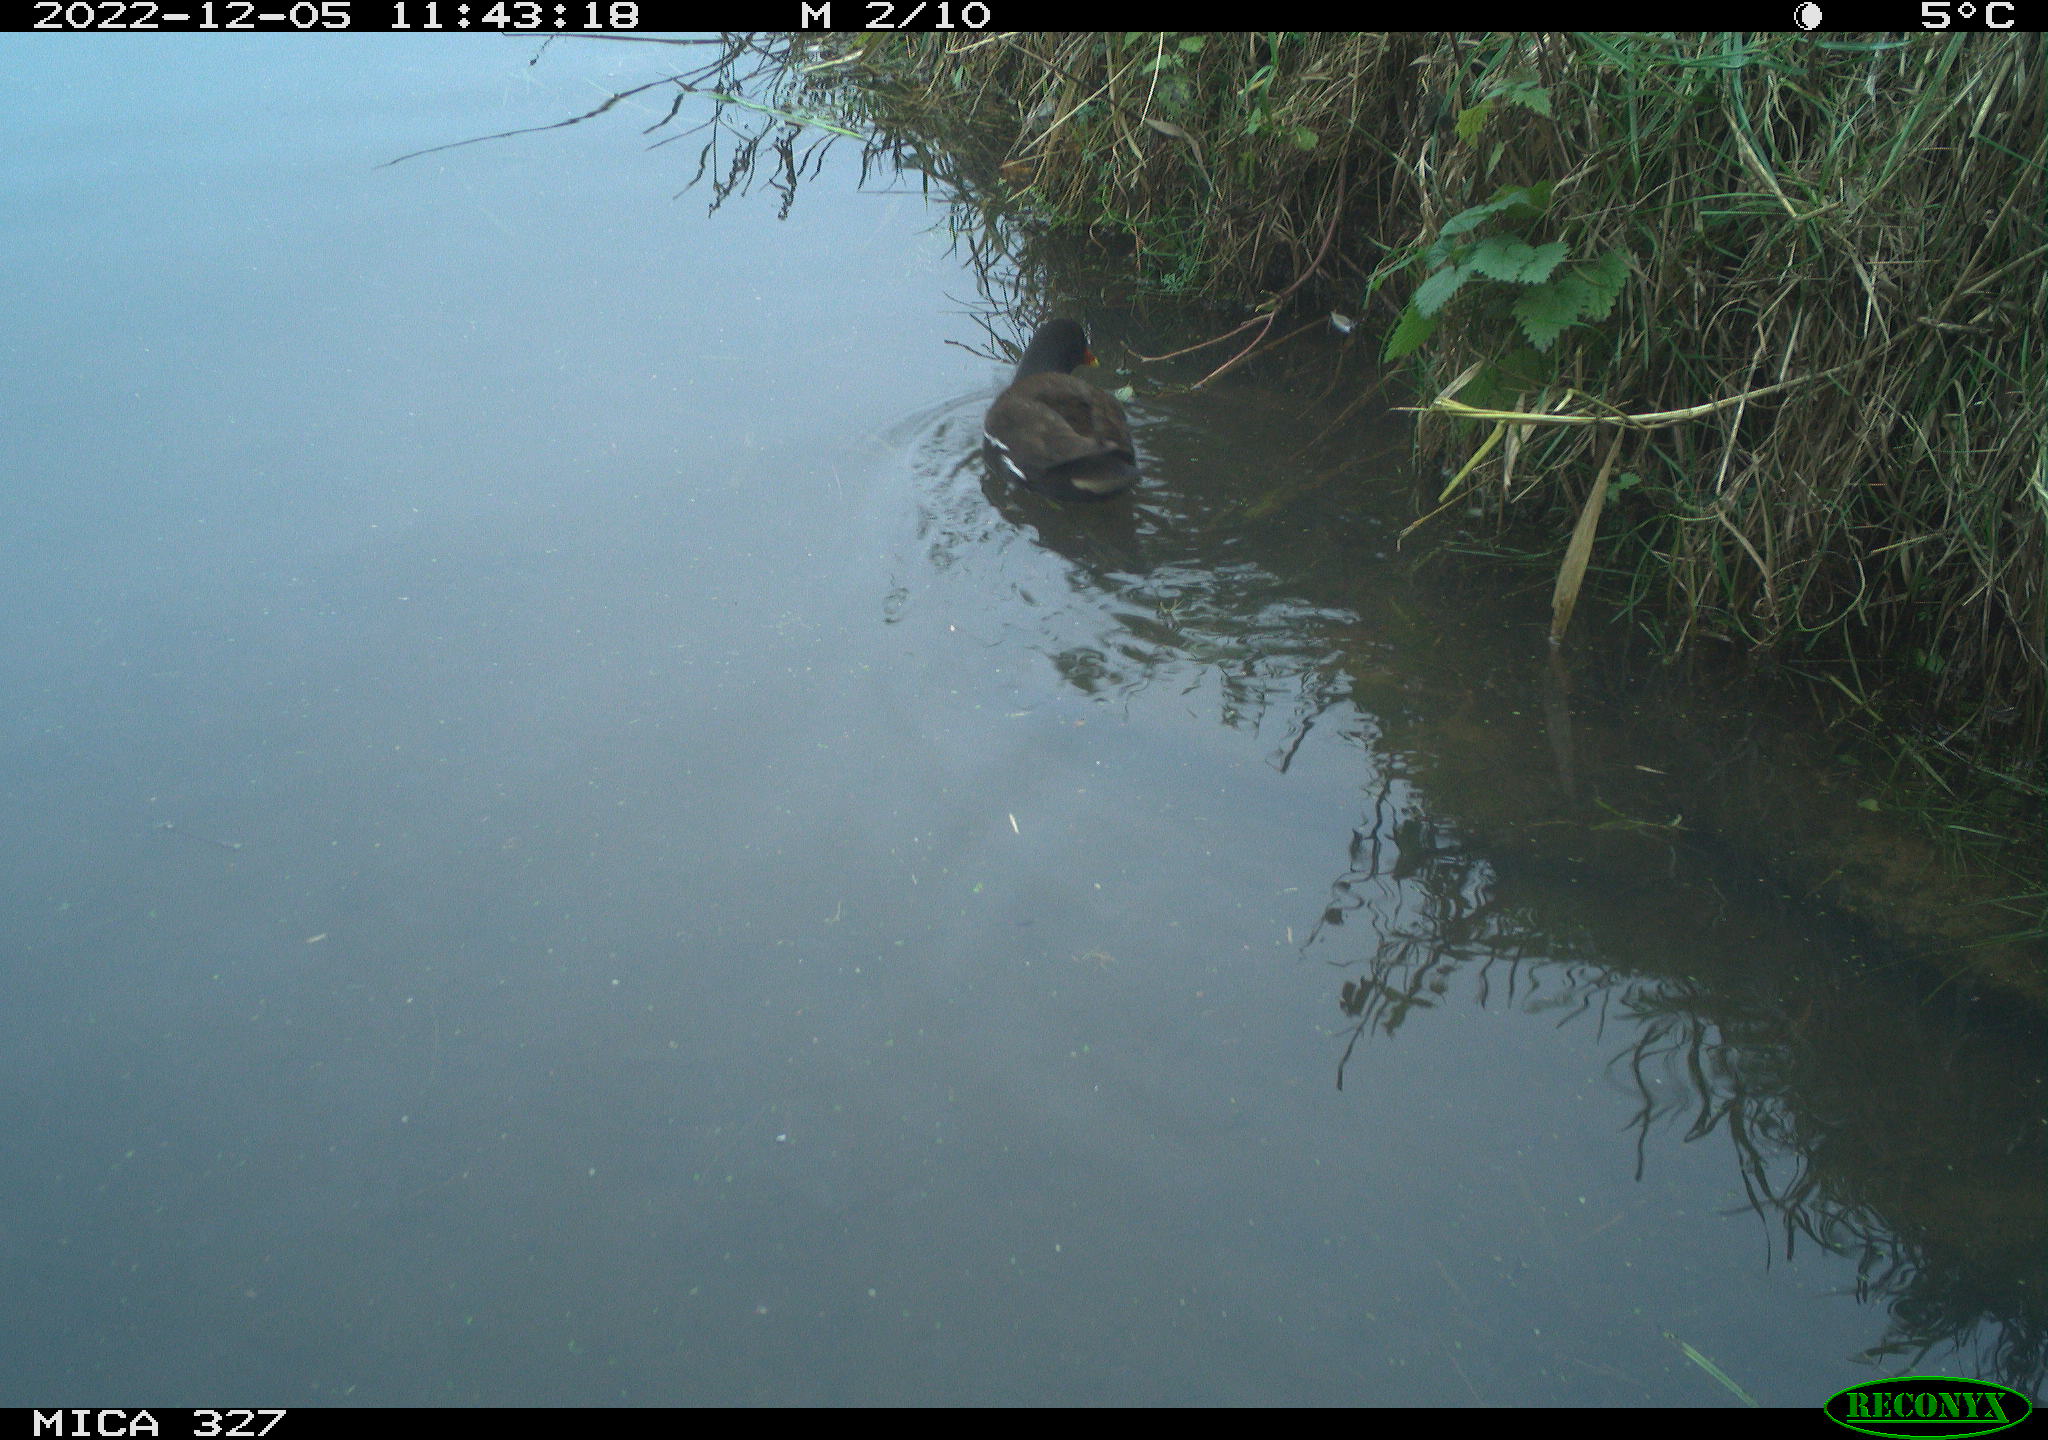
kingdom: Animalia
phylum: Chordata
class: Aves
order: Gruiformes
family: Rallidae
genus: Gallinula
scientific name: Gallinula chloropus
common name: Common moorhen
